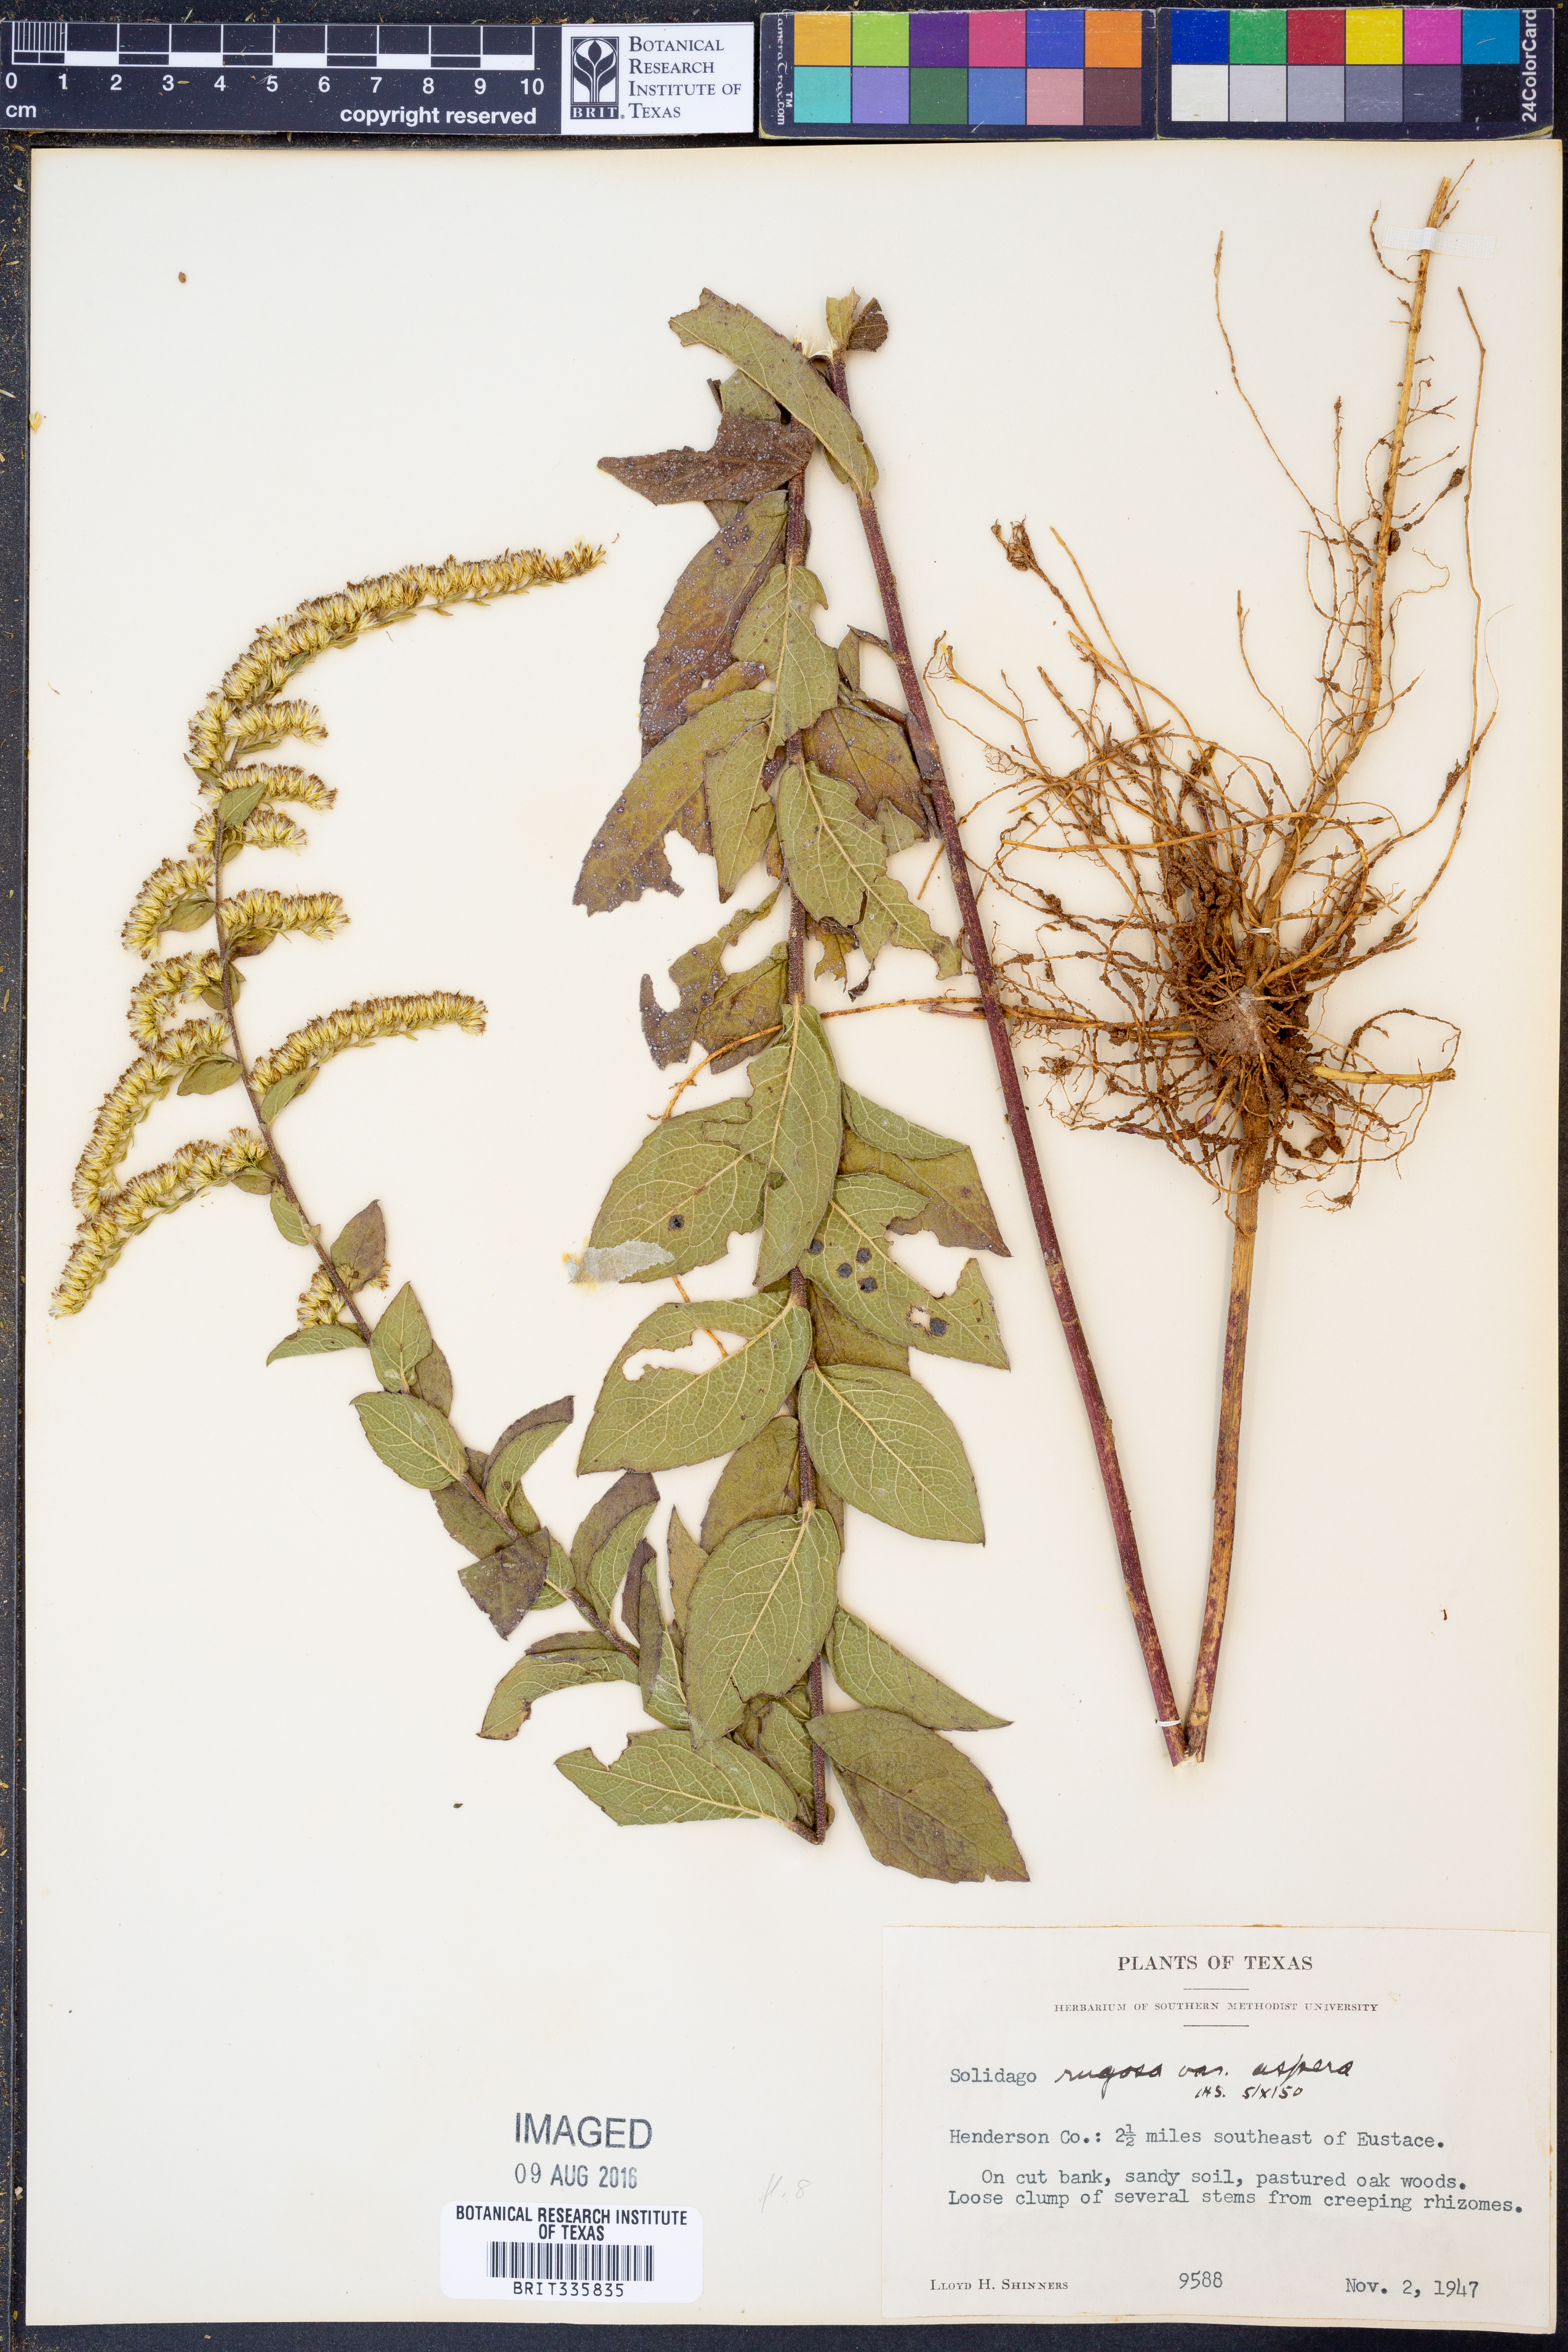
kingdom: Plantae
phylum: Tracheophyta
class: Magnoliopsida
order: Asterales
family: Asteraceae
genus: Solidago
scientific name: Solidago rugosa
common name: Rough-stemmed goldenrod
